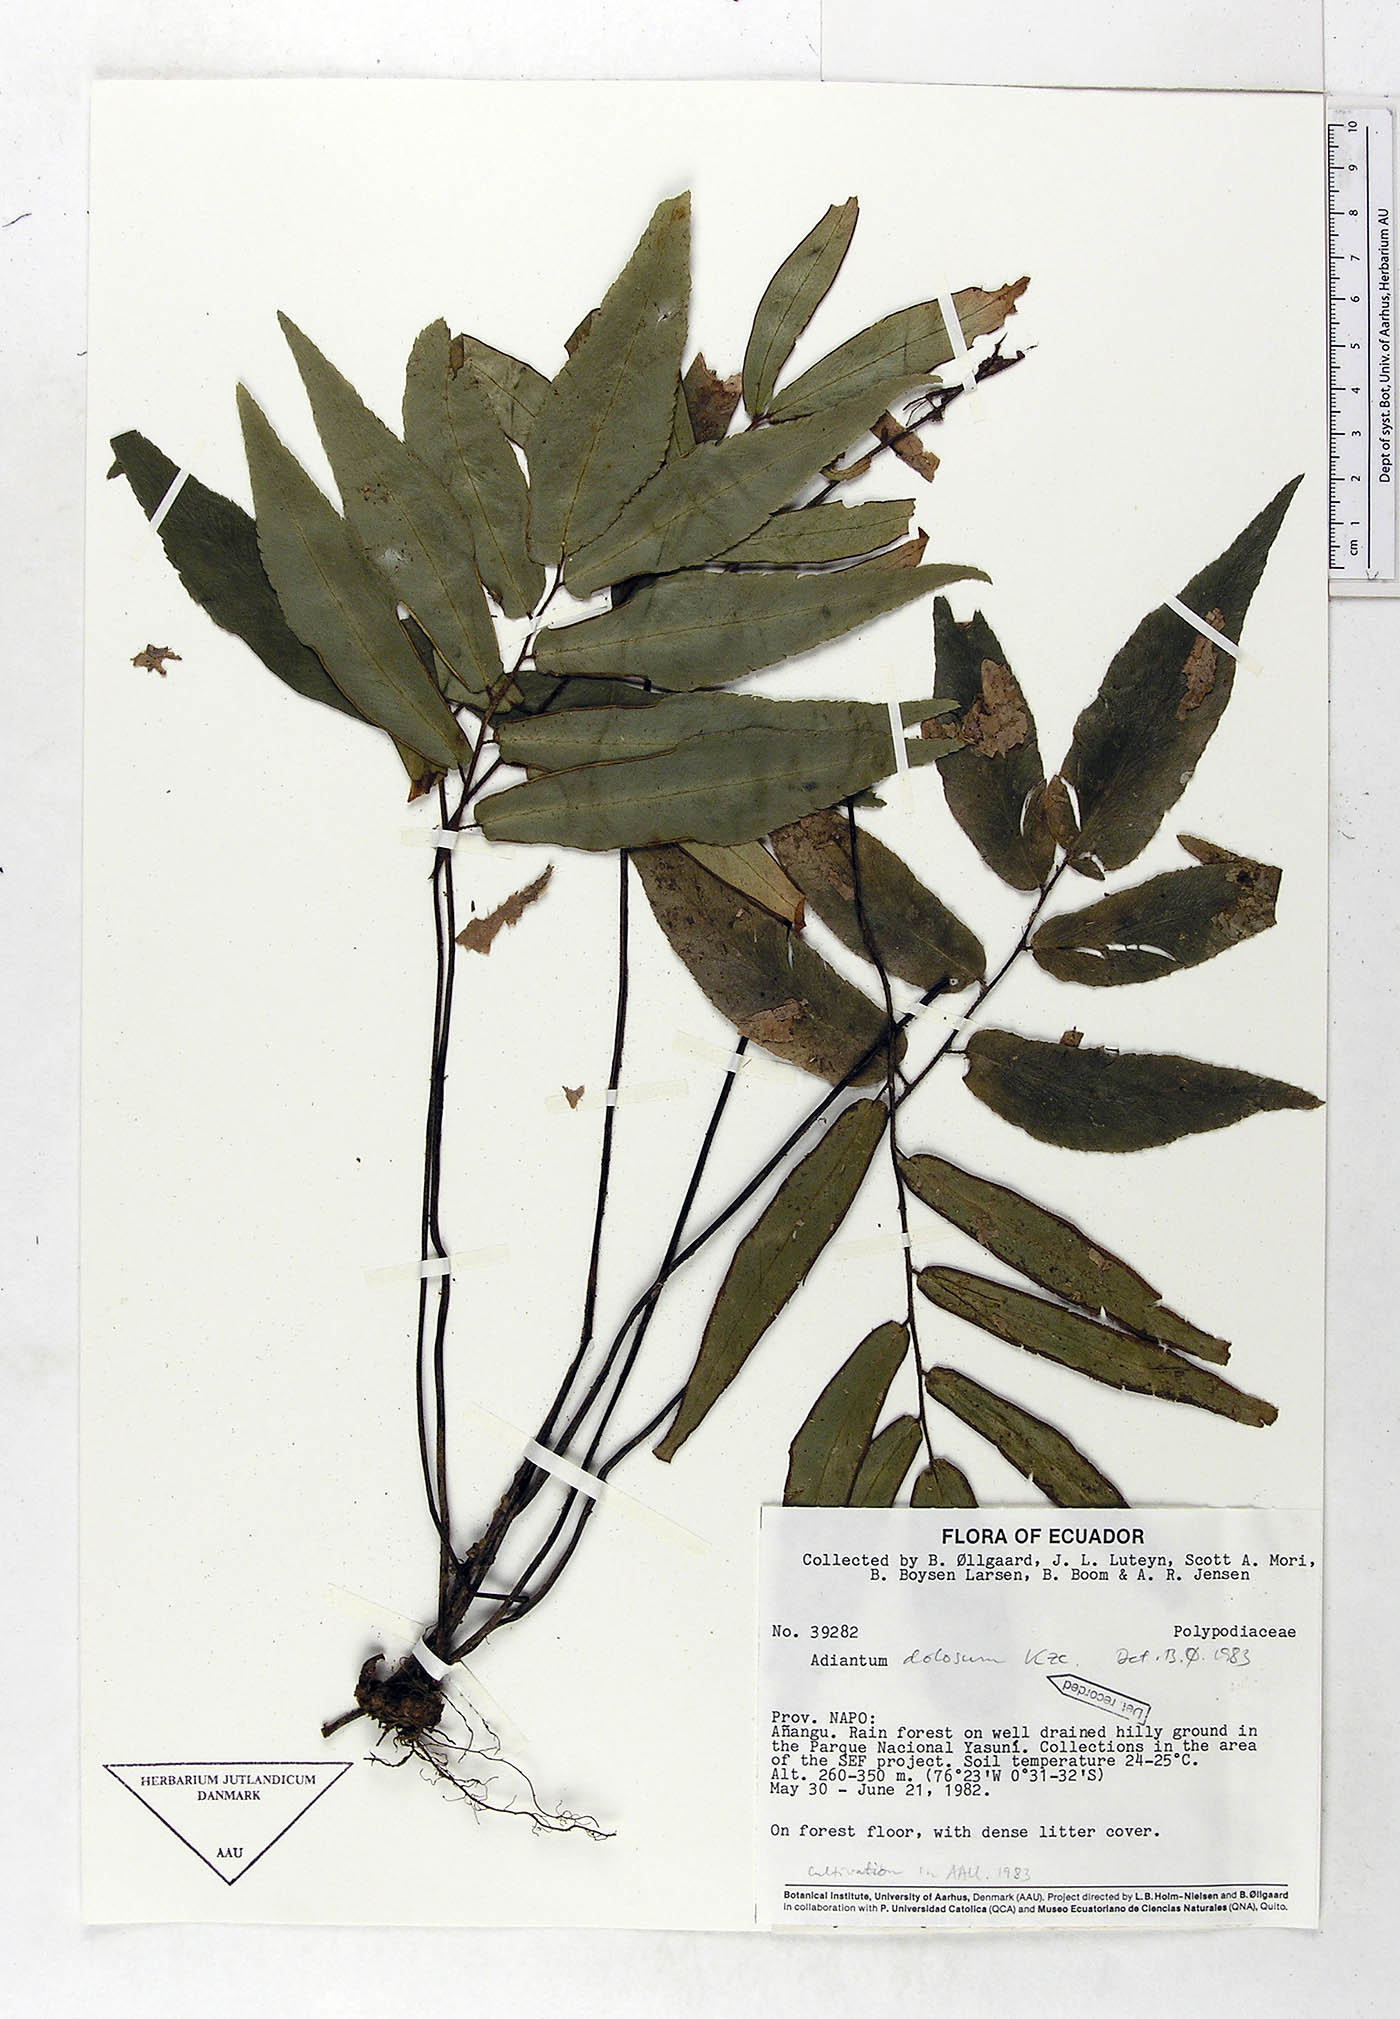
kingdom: Plantae
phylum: Tracheophyta
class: Polypodiopsida
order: Polypodiales
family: Pteridaceae
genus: Adiantum
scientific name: Adiantum dolosum
